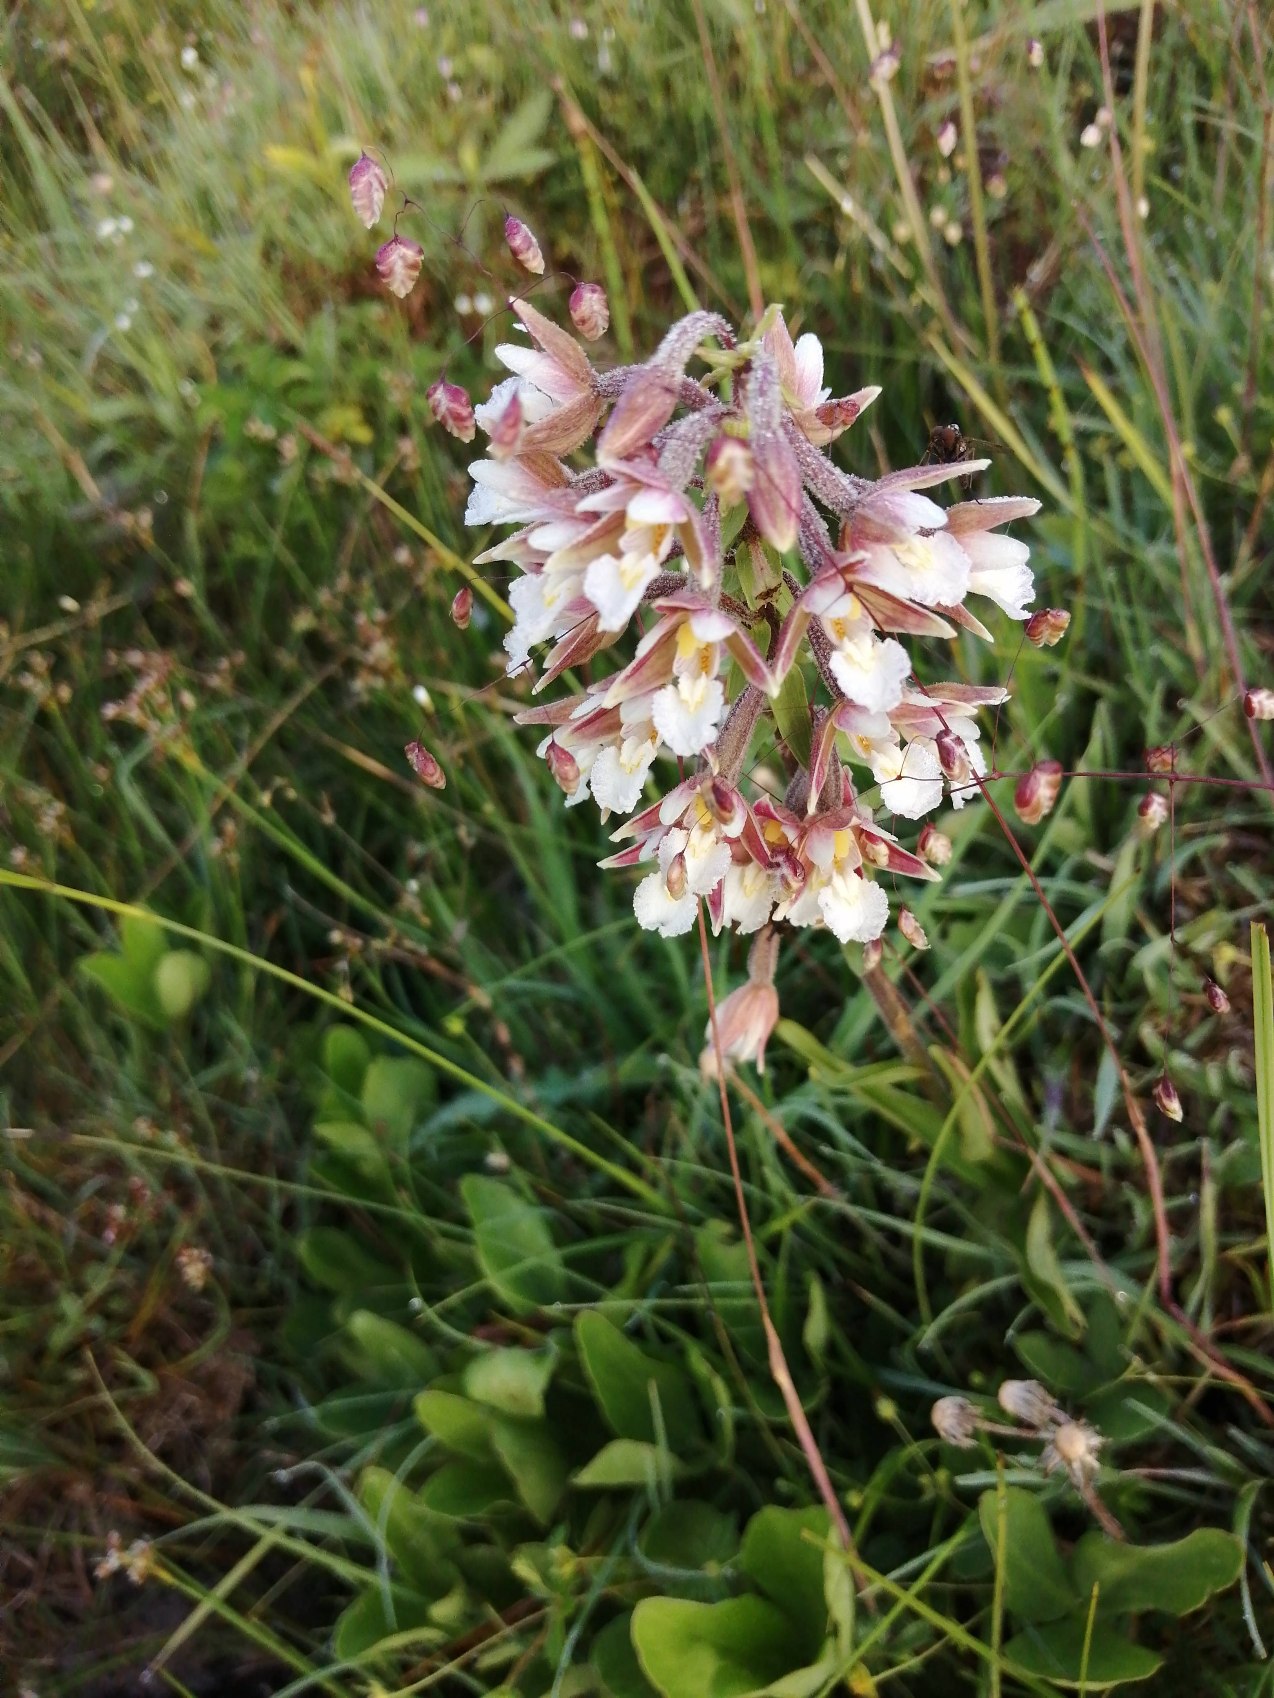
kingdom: Plantae
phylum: Tracheophyta
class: Liliopsida
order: Asparagales
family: Orchidaceae
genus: Epipactis
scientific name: Epipactis palustris
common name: Sump-hullæbe
